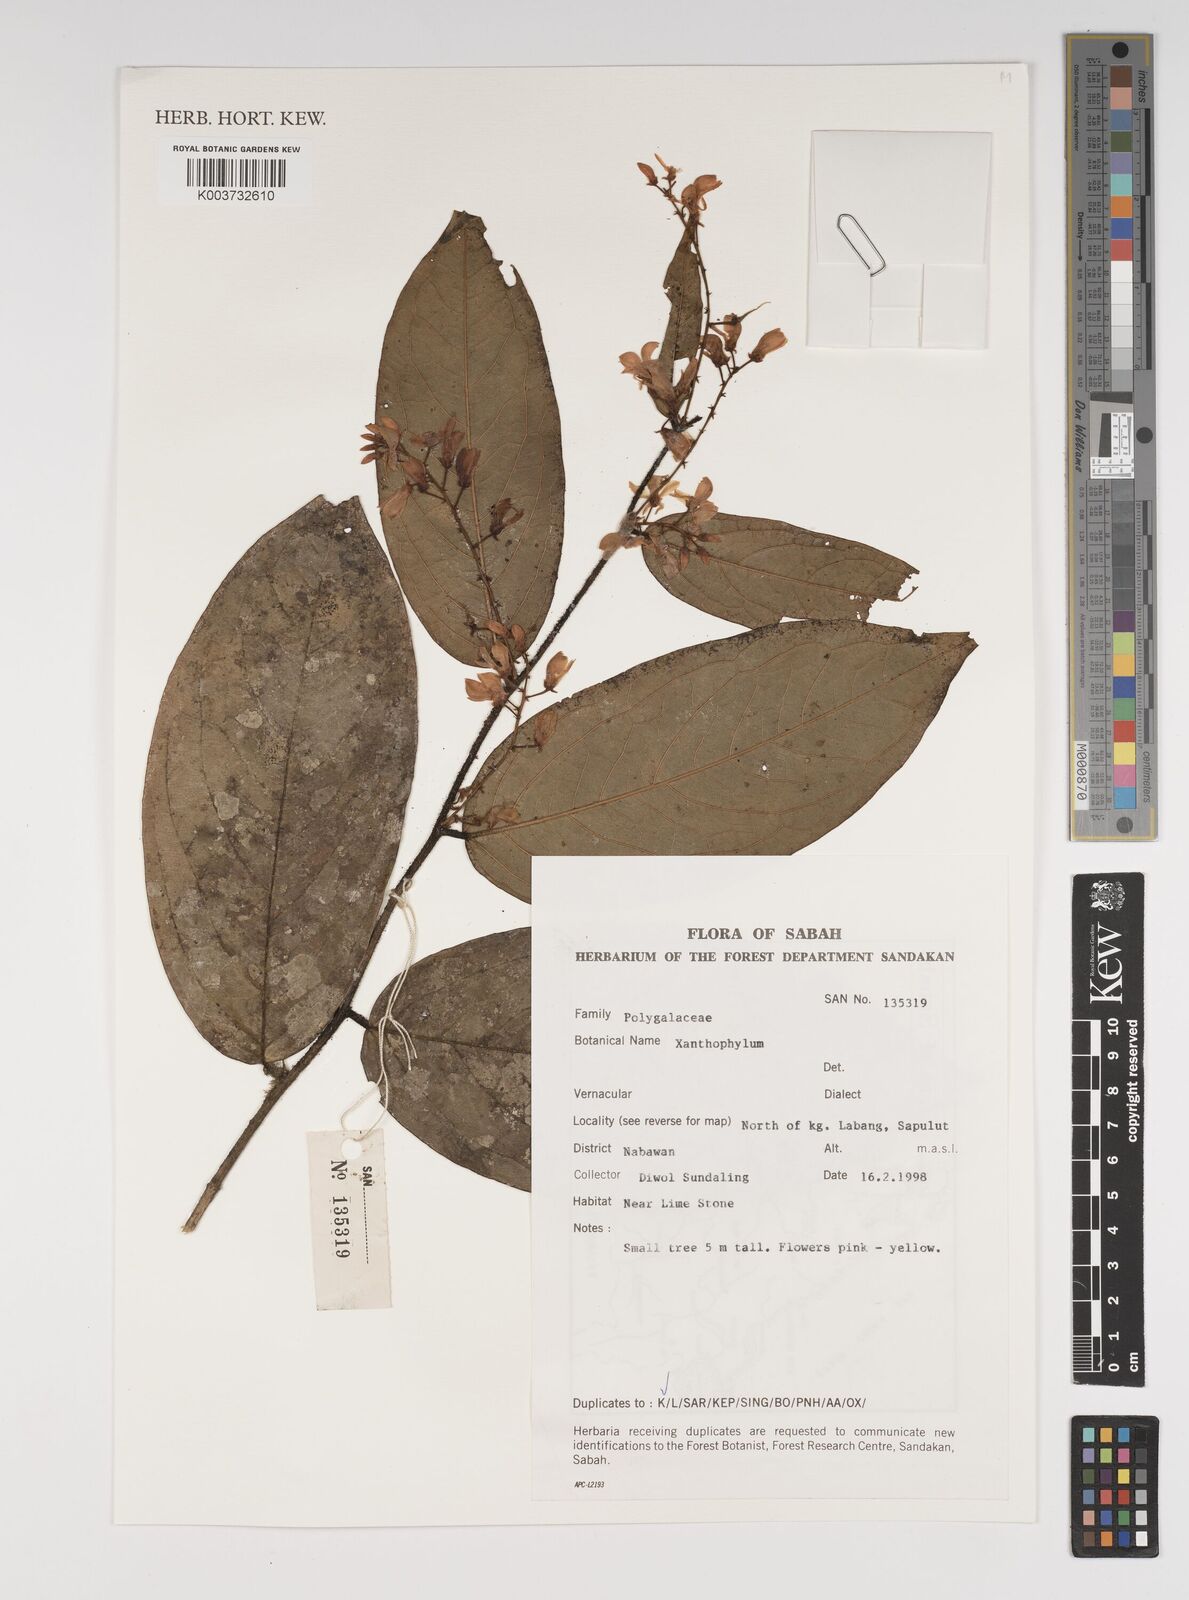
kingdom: Plantae
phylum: Tracheophyta
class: Magnoliopsida
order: Fabales
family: Polygalaceae
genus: Xanthophyllum
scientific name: Xanthophyllum
